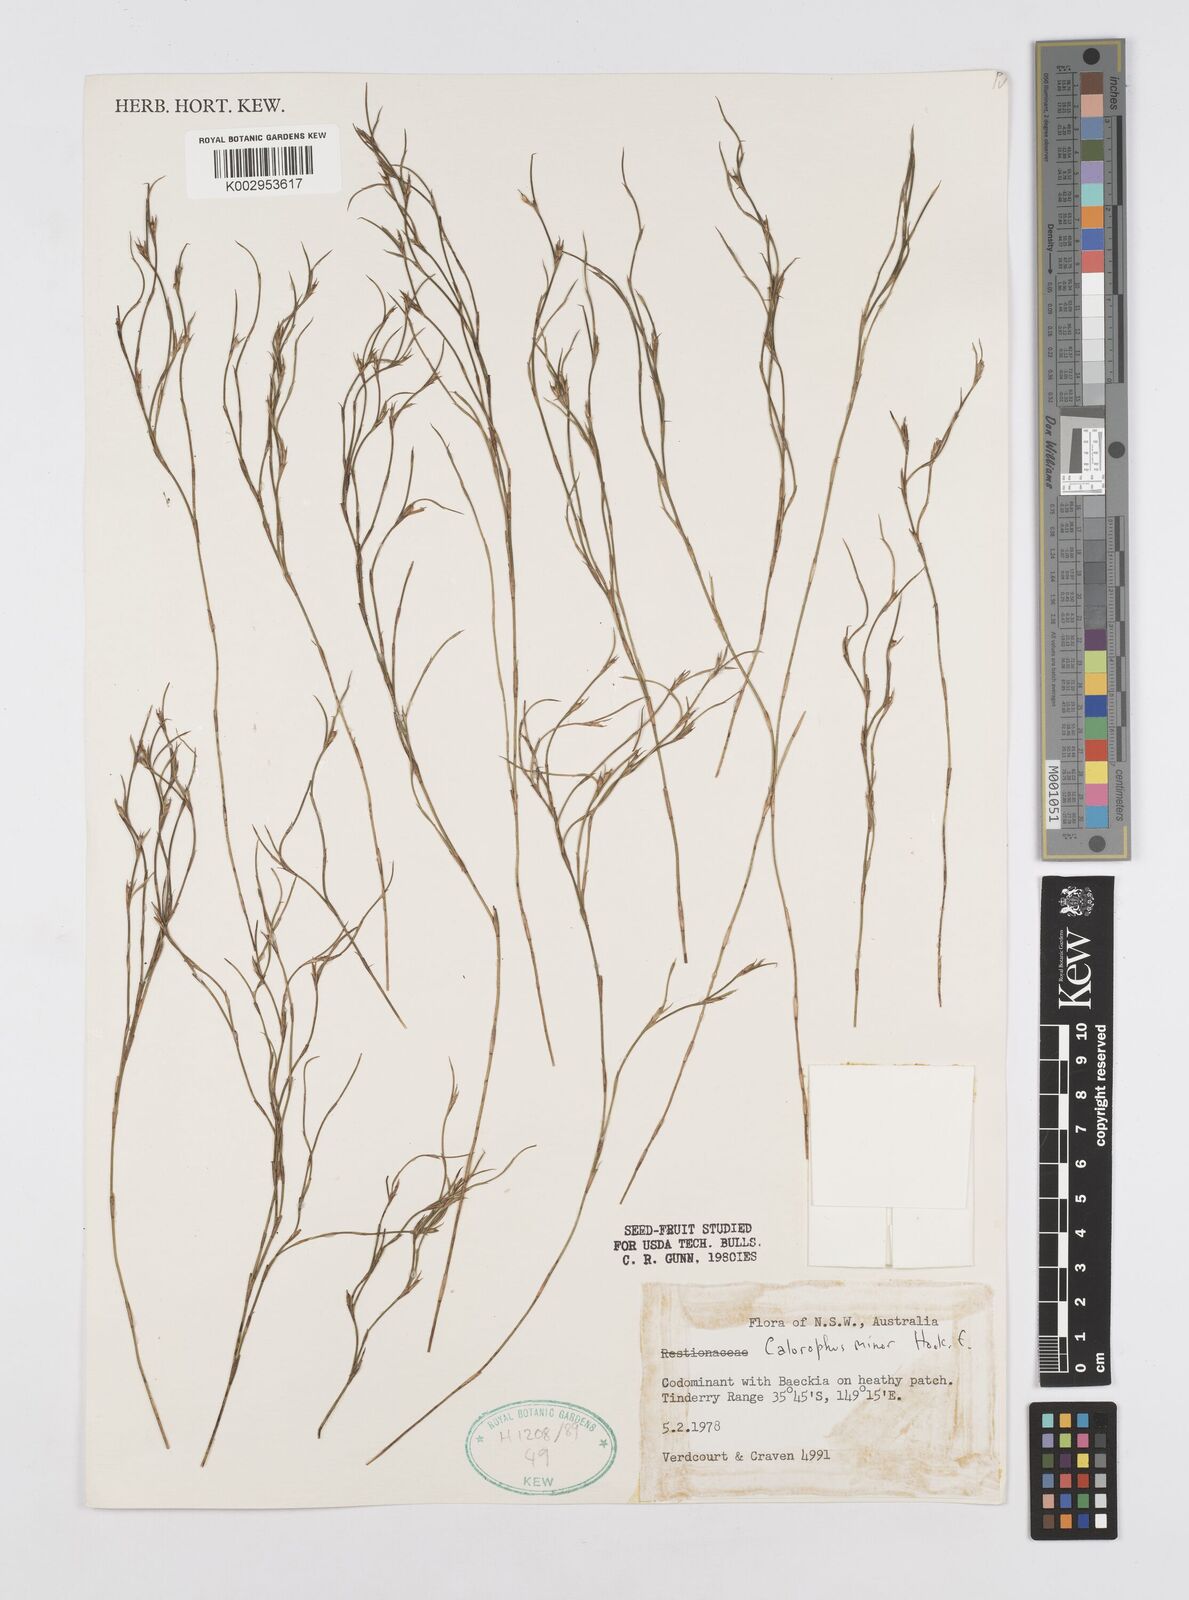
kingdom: Plantae
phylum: Tracheophyta
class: Liliopsida
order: Poales
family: Restionaceae
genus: Empodisma
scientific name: Empodisma minus
